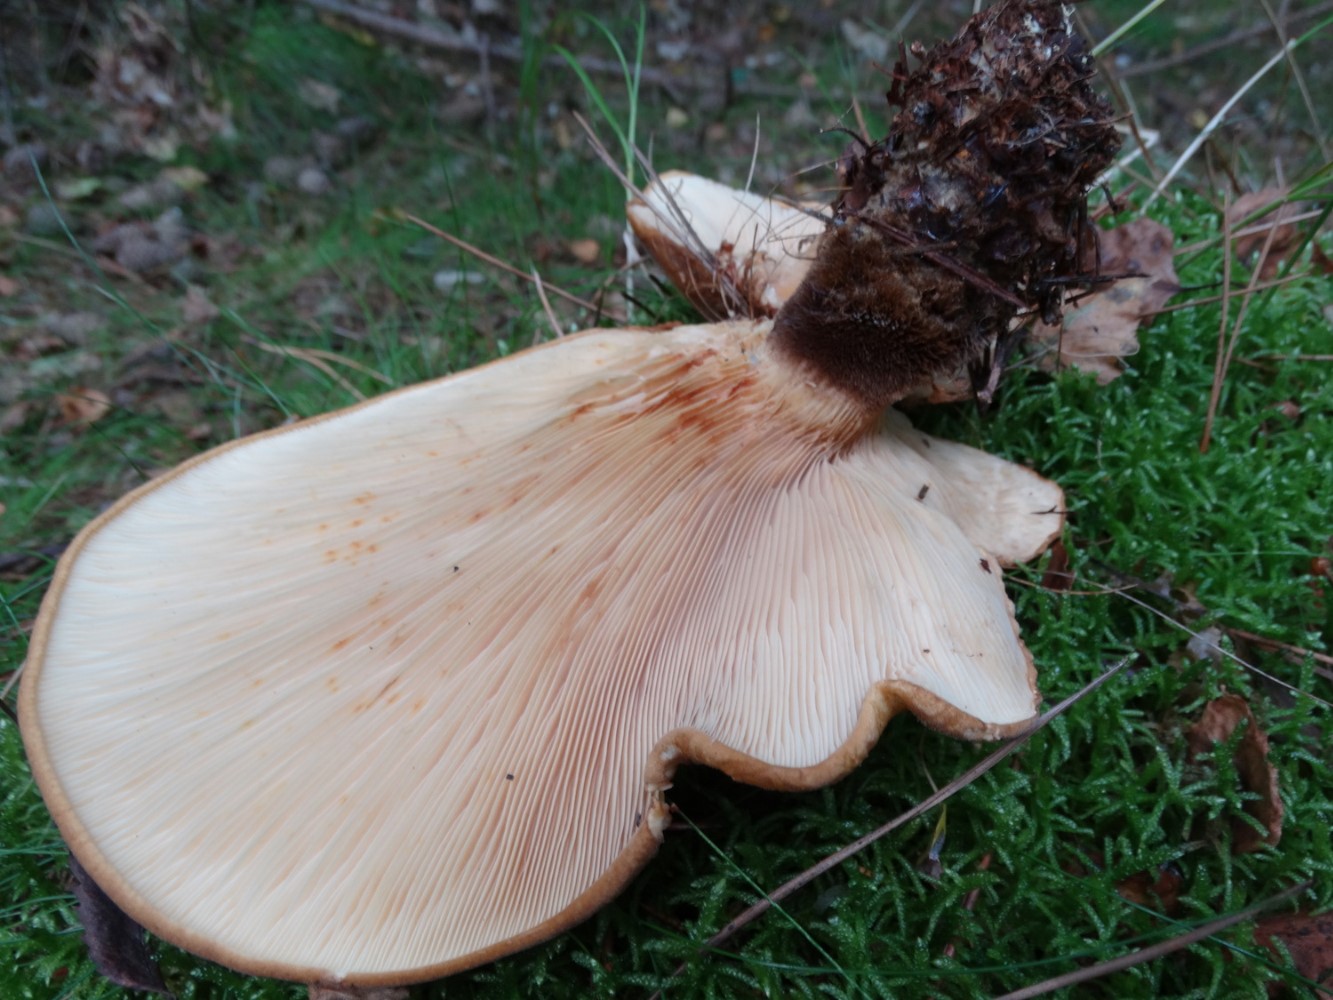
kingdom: Fungi
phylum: Basidiomycota
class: Agaricomycetes
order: Boletales
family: Tapinellaceae
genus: Tapinella
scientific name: Tapinella atrotomentosa
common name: sortfiltet viftesvamp
